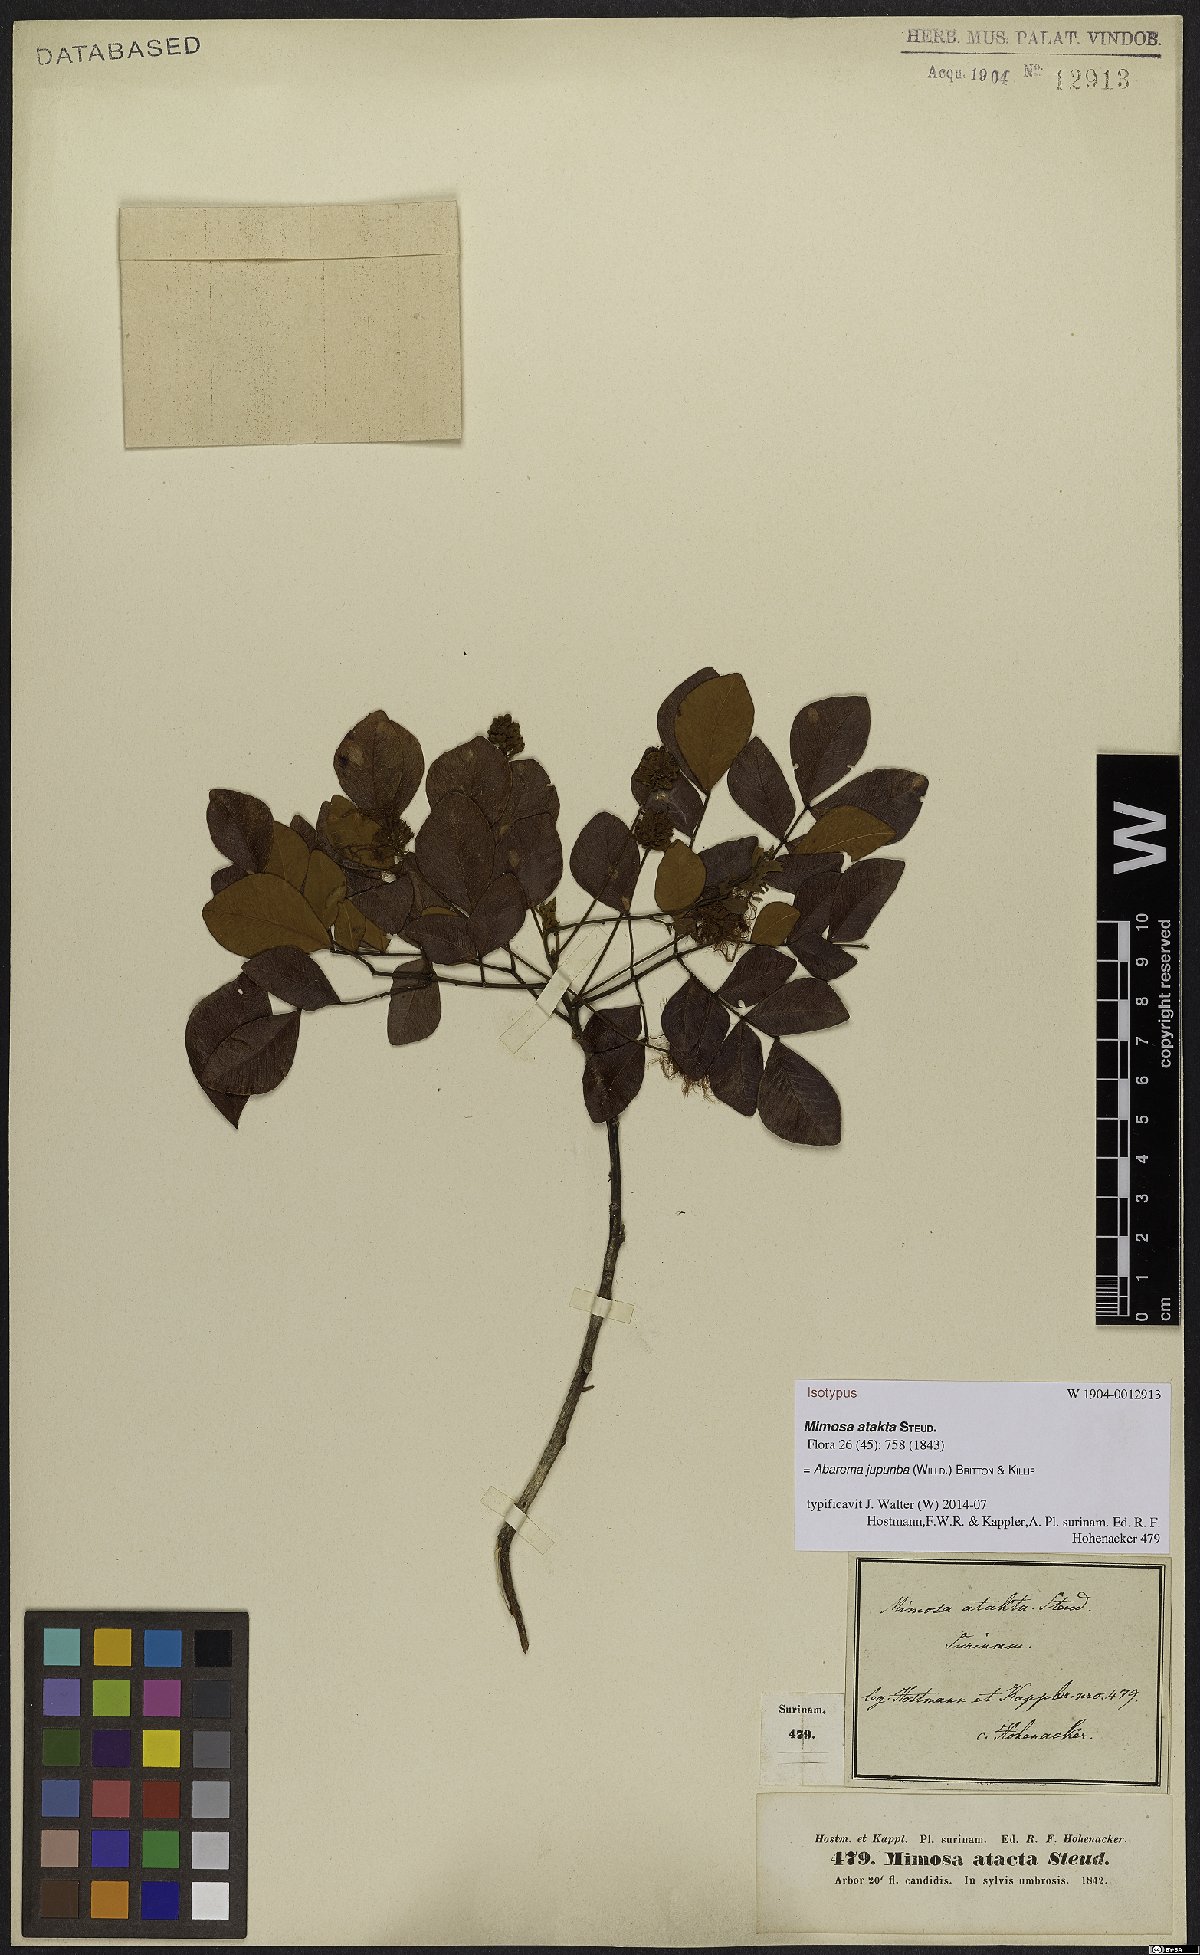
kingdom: Plantae
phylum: Tracheophyta
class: Magnoliopsida
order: Fabales
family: Fabaceae
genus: Jupunba
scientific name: Jupunba trapezifolia
